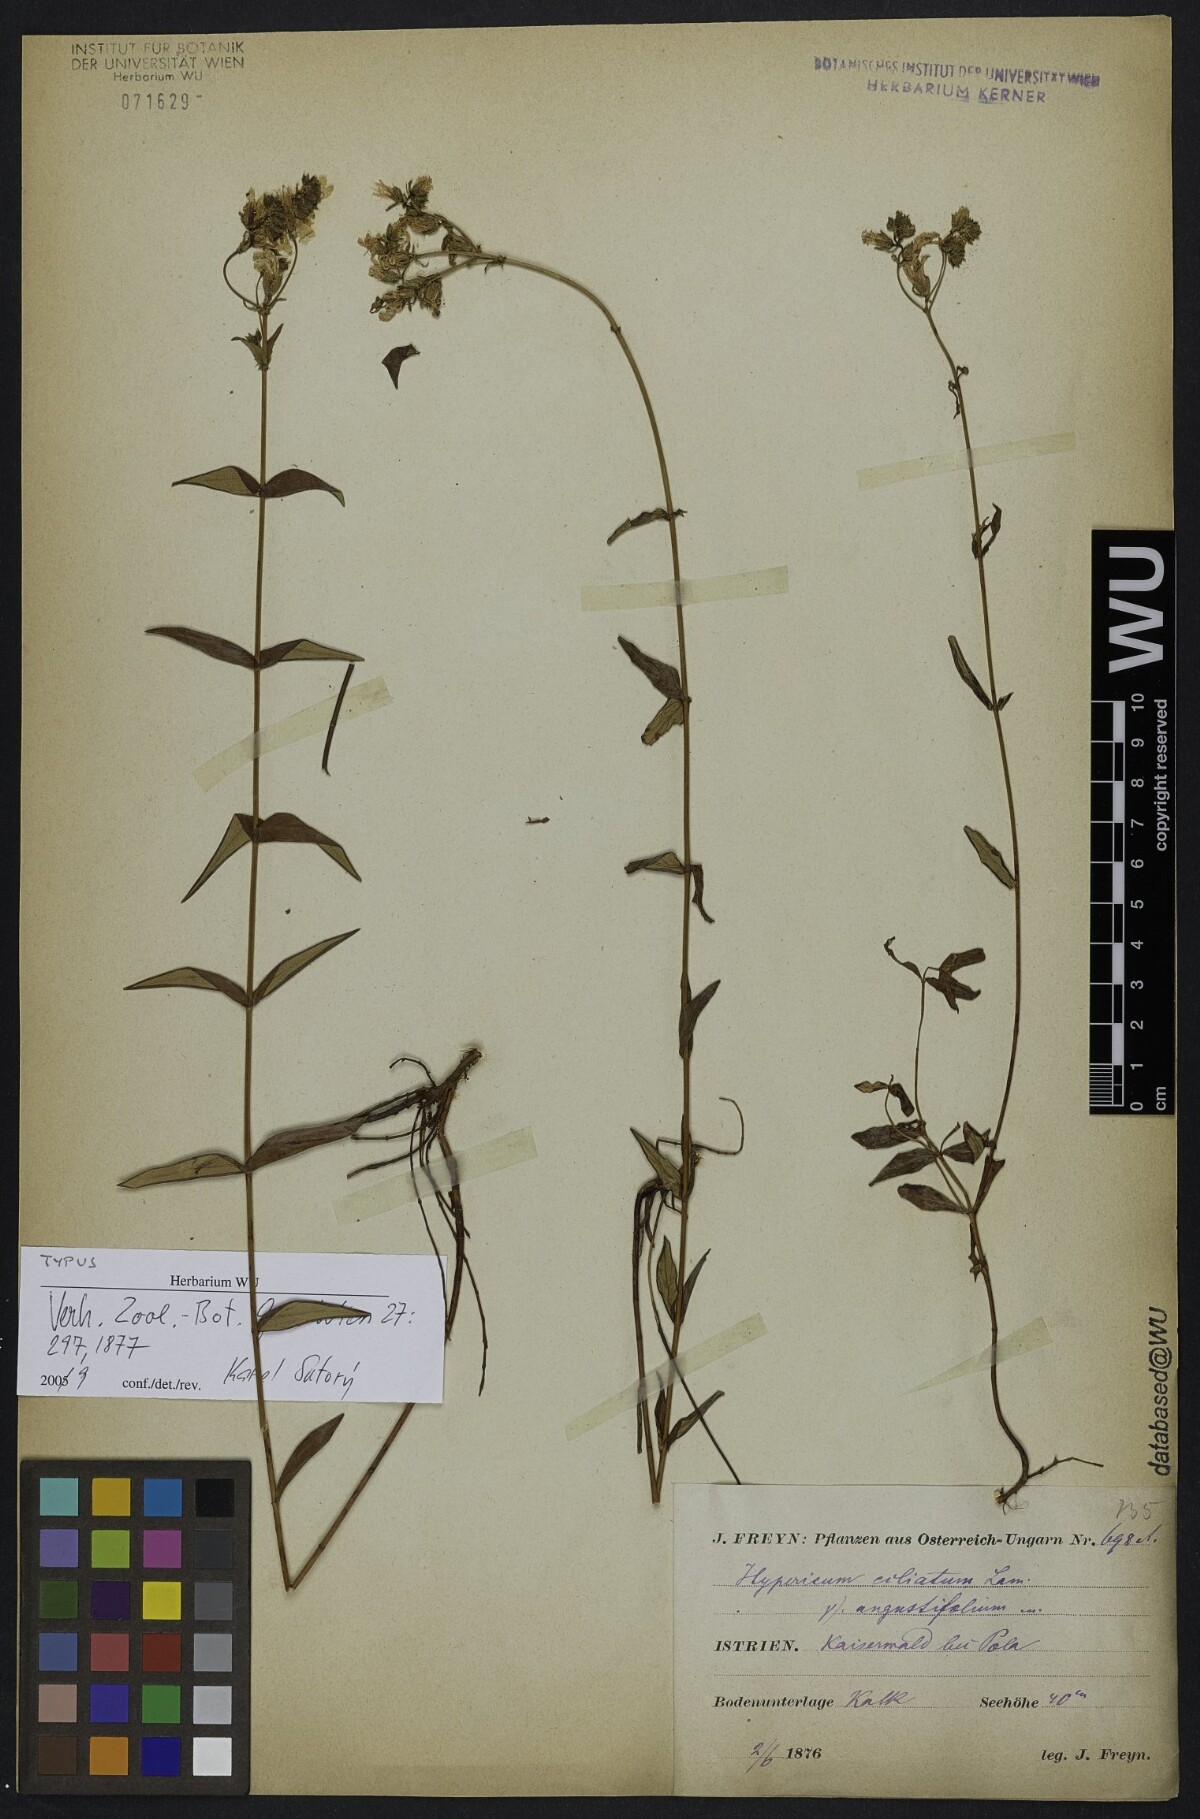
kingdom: Plantae
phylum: Tracheophyta
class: Magnoliopsida
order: Malpighiales
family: Hypericaceae
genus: Hypericum
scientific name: Hypericum perfoliatum
